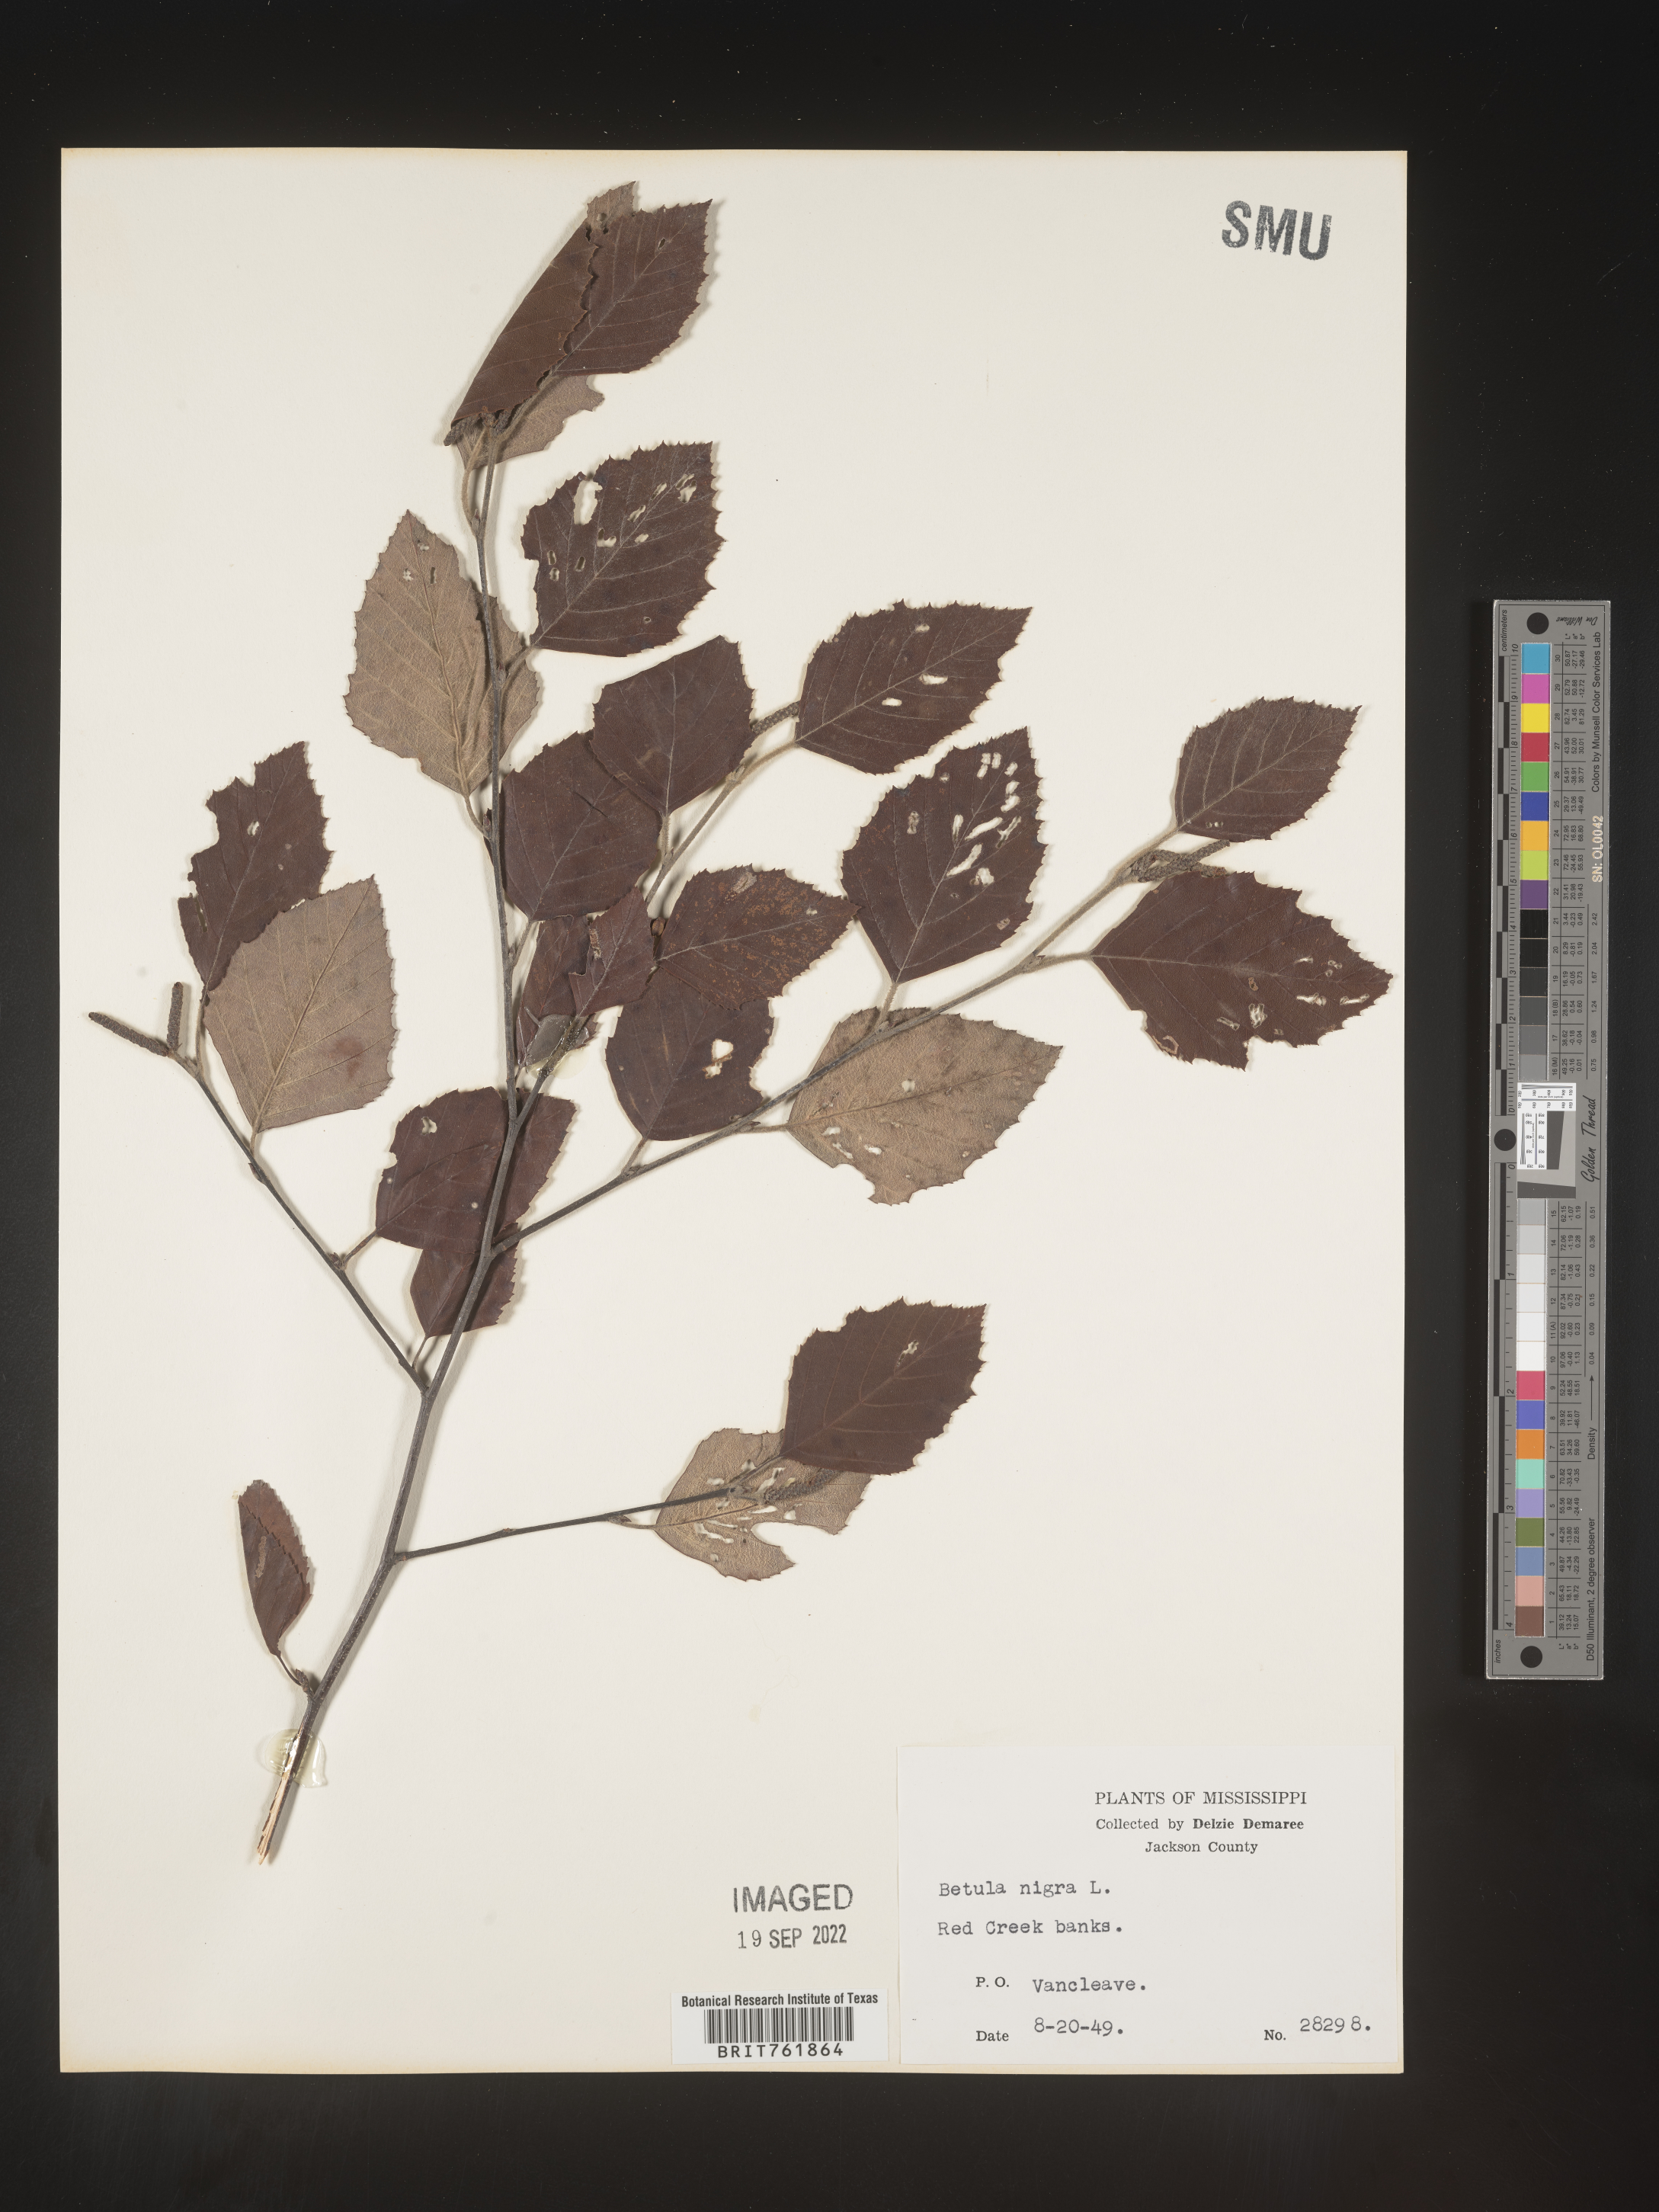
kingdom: Plantae
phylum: Tracheophyta
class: Magnoliopsida
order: Fagales
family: Betulaceae
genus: Betula
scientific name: Betula nigra
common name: Black birch
